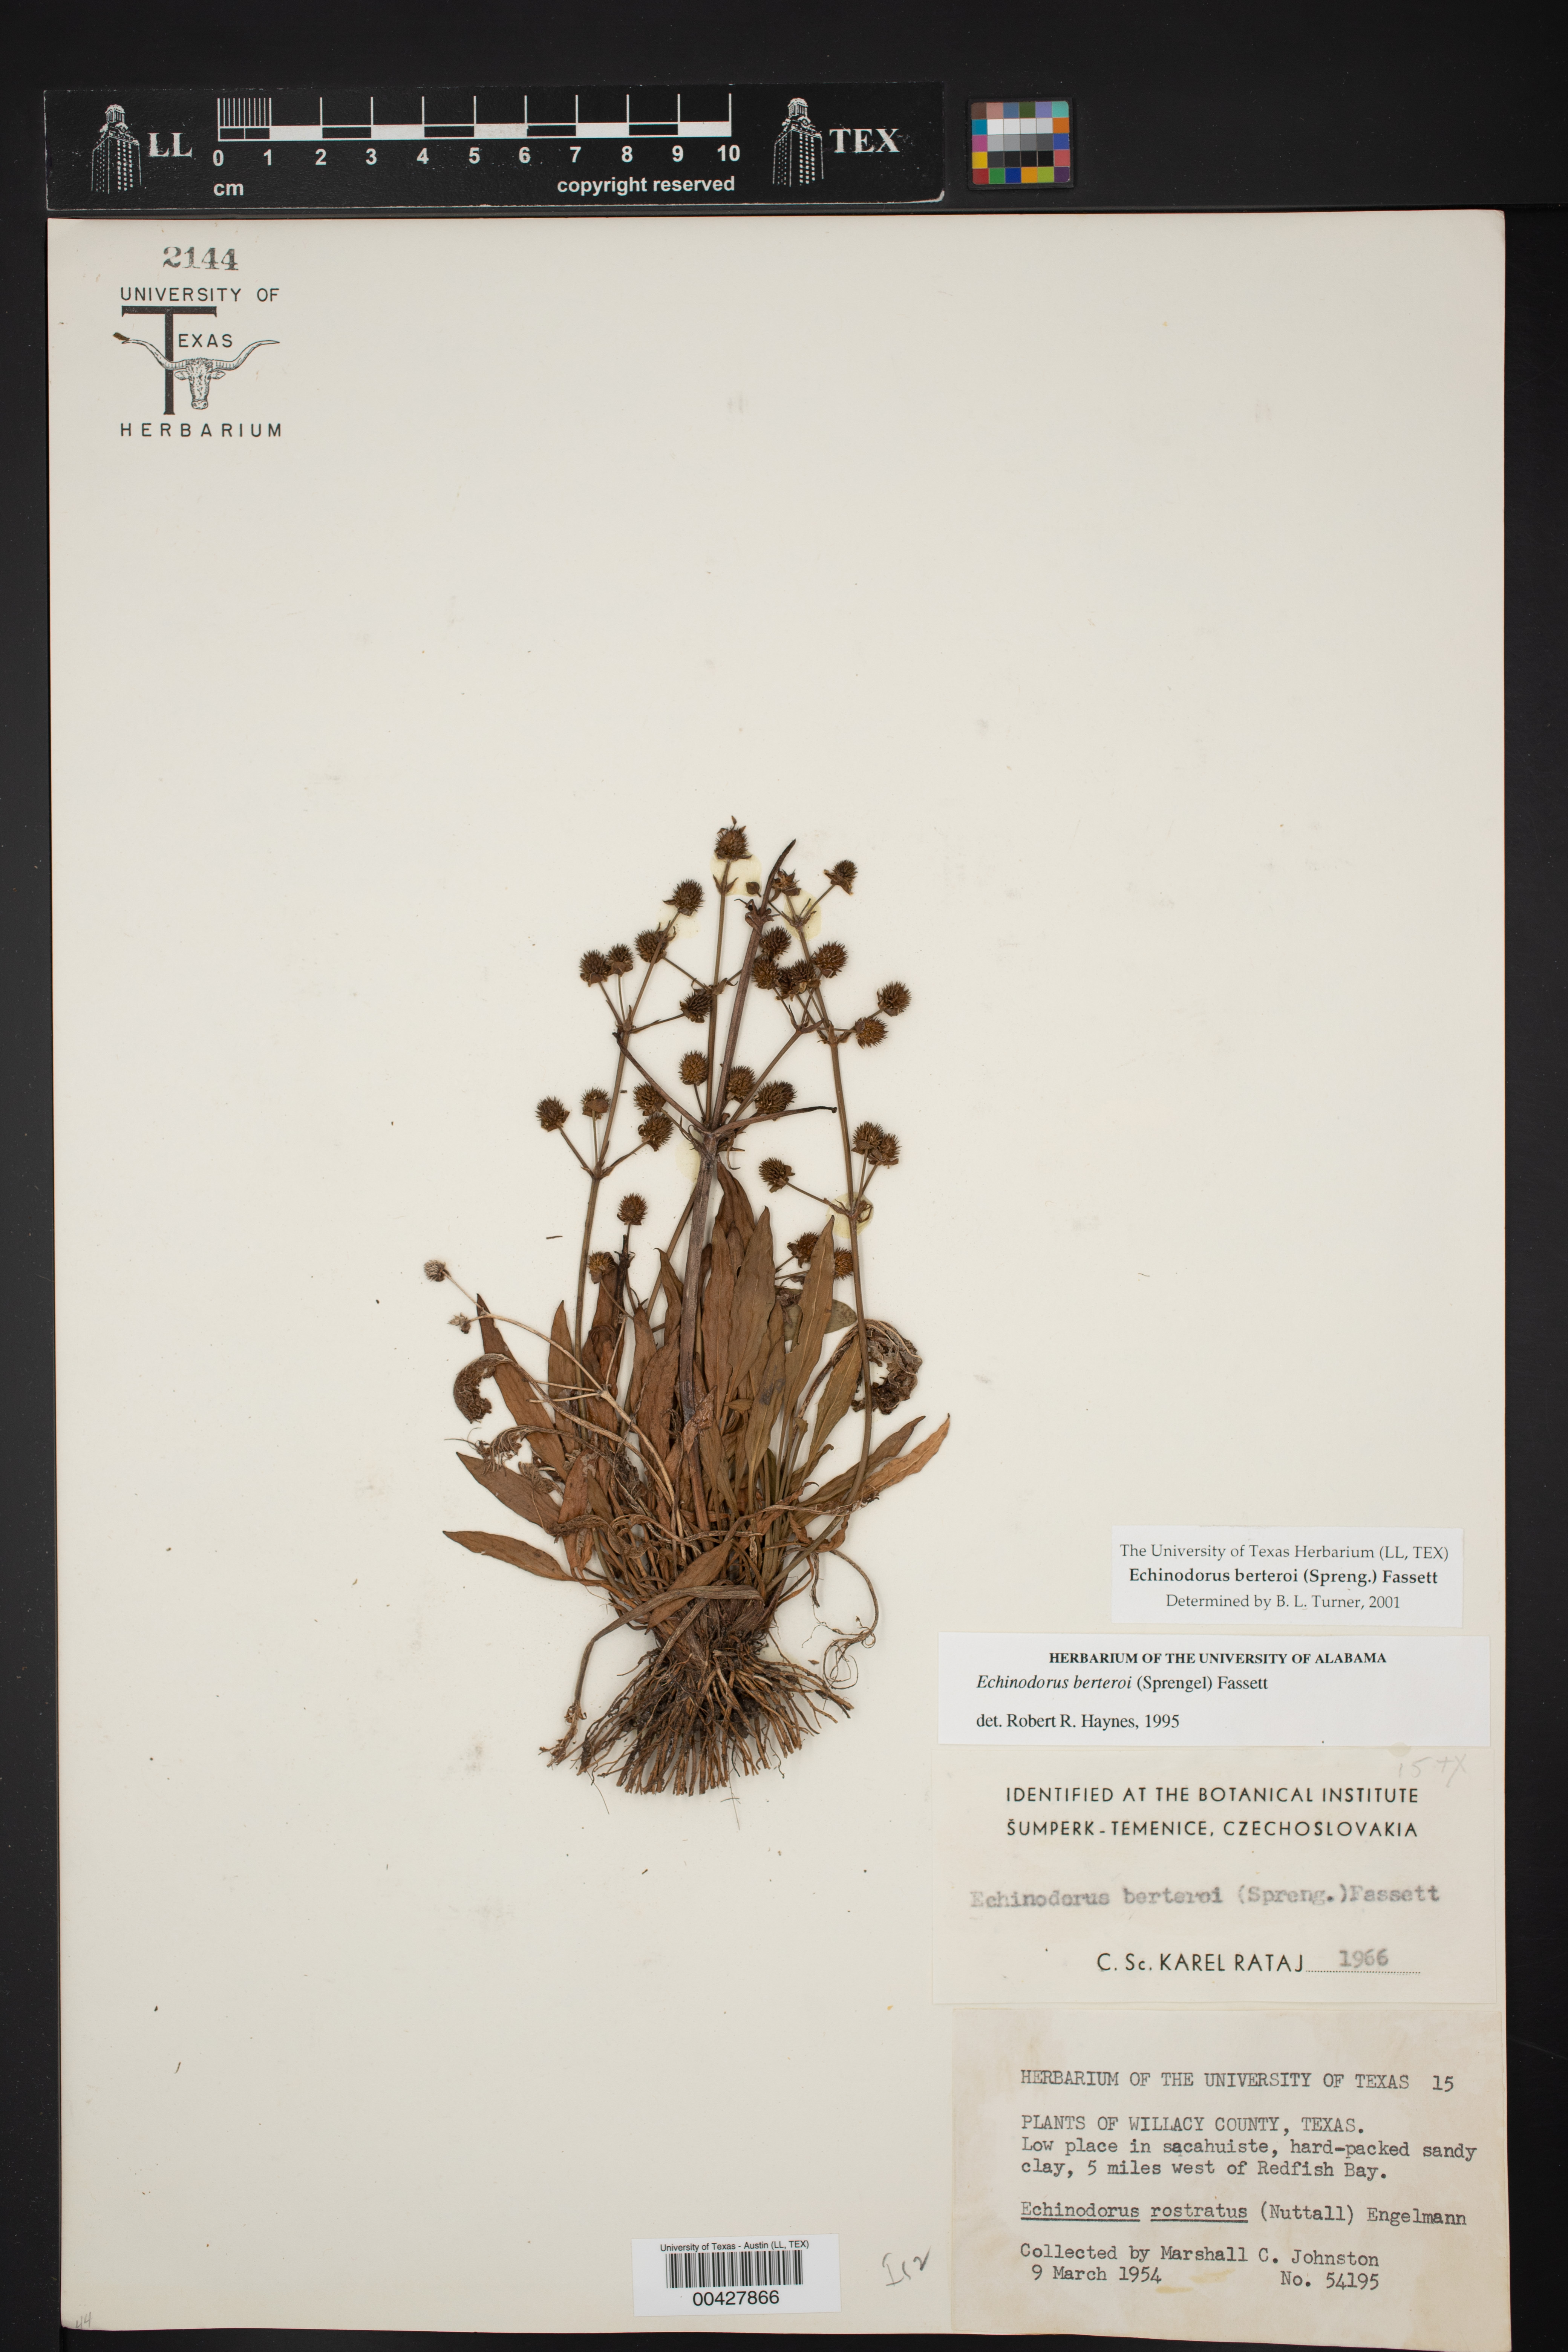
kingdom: Plantae
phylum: Tracheophyta
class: Liliopsida
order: Alismatales
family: Alismataceae
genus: Echinodorus
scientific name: Echinodorus berteroi
